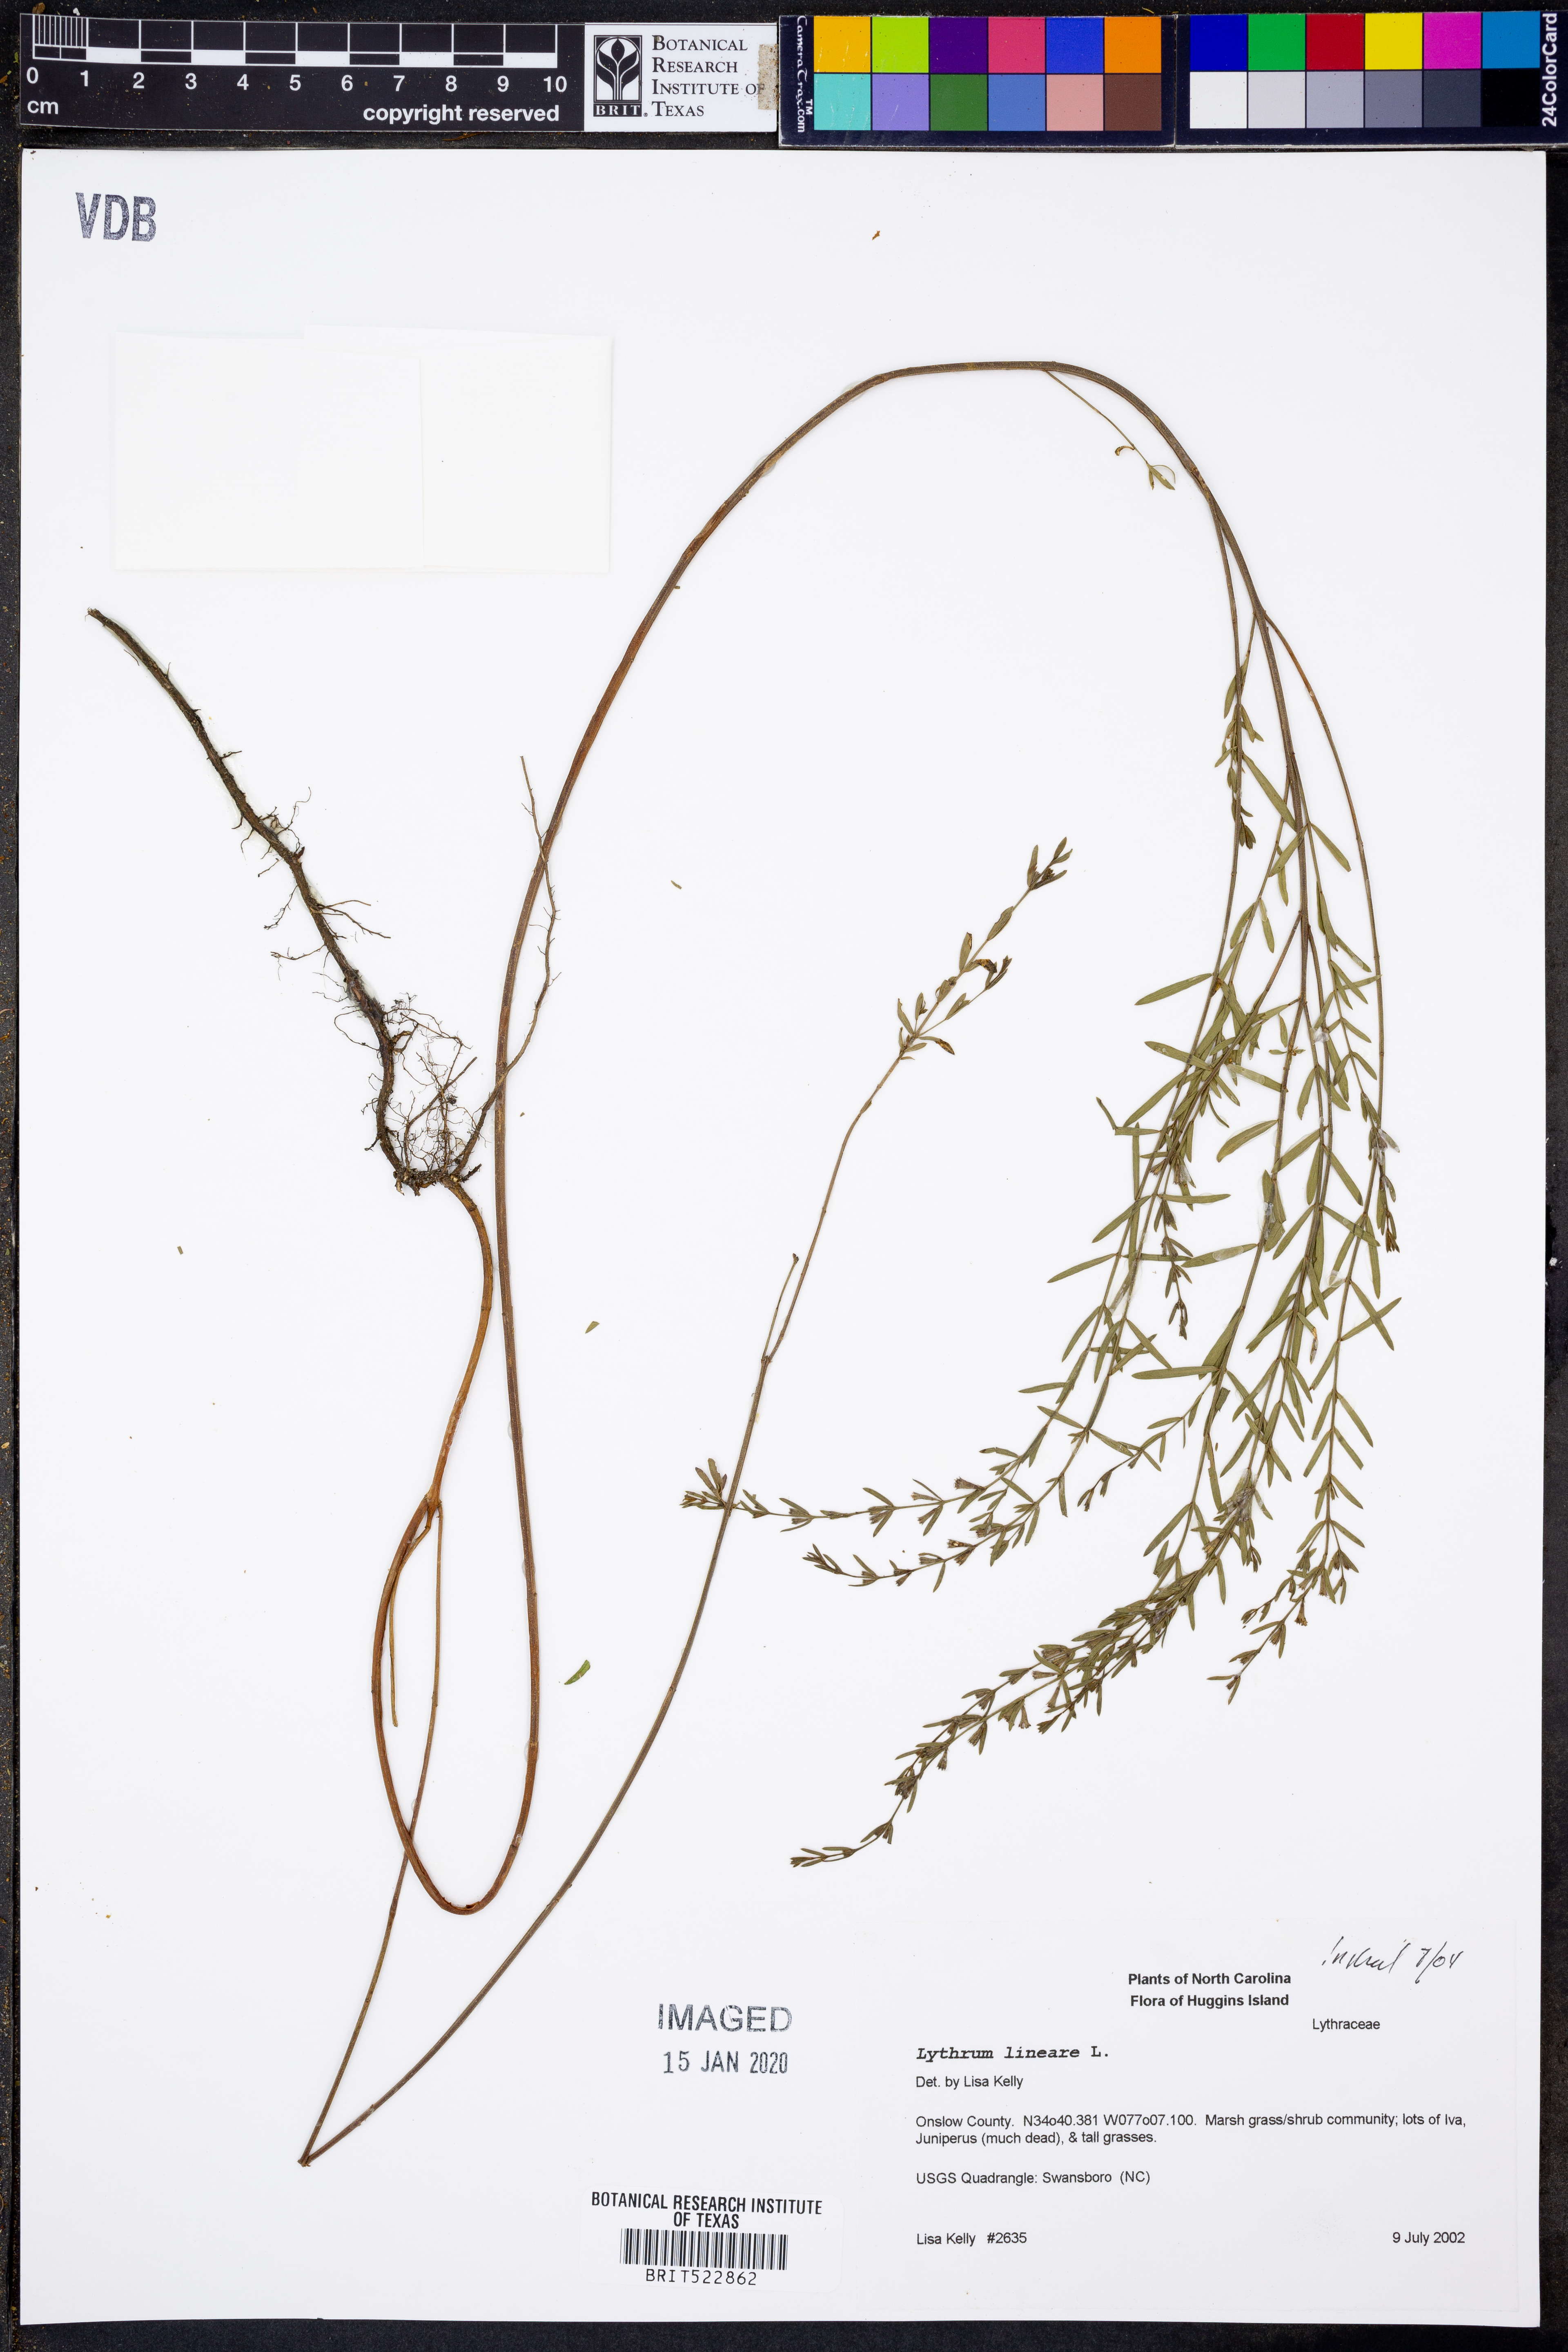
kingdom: Plantae
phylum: Tracheophyta
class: Magnoliopsida
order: Myrtales
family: Lythraceae
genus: Lythrum
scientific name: Lythrum lineare
